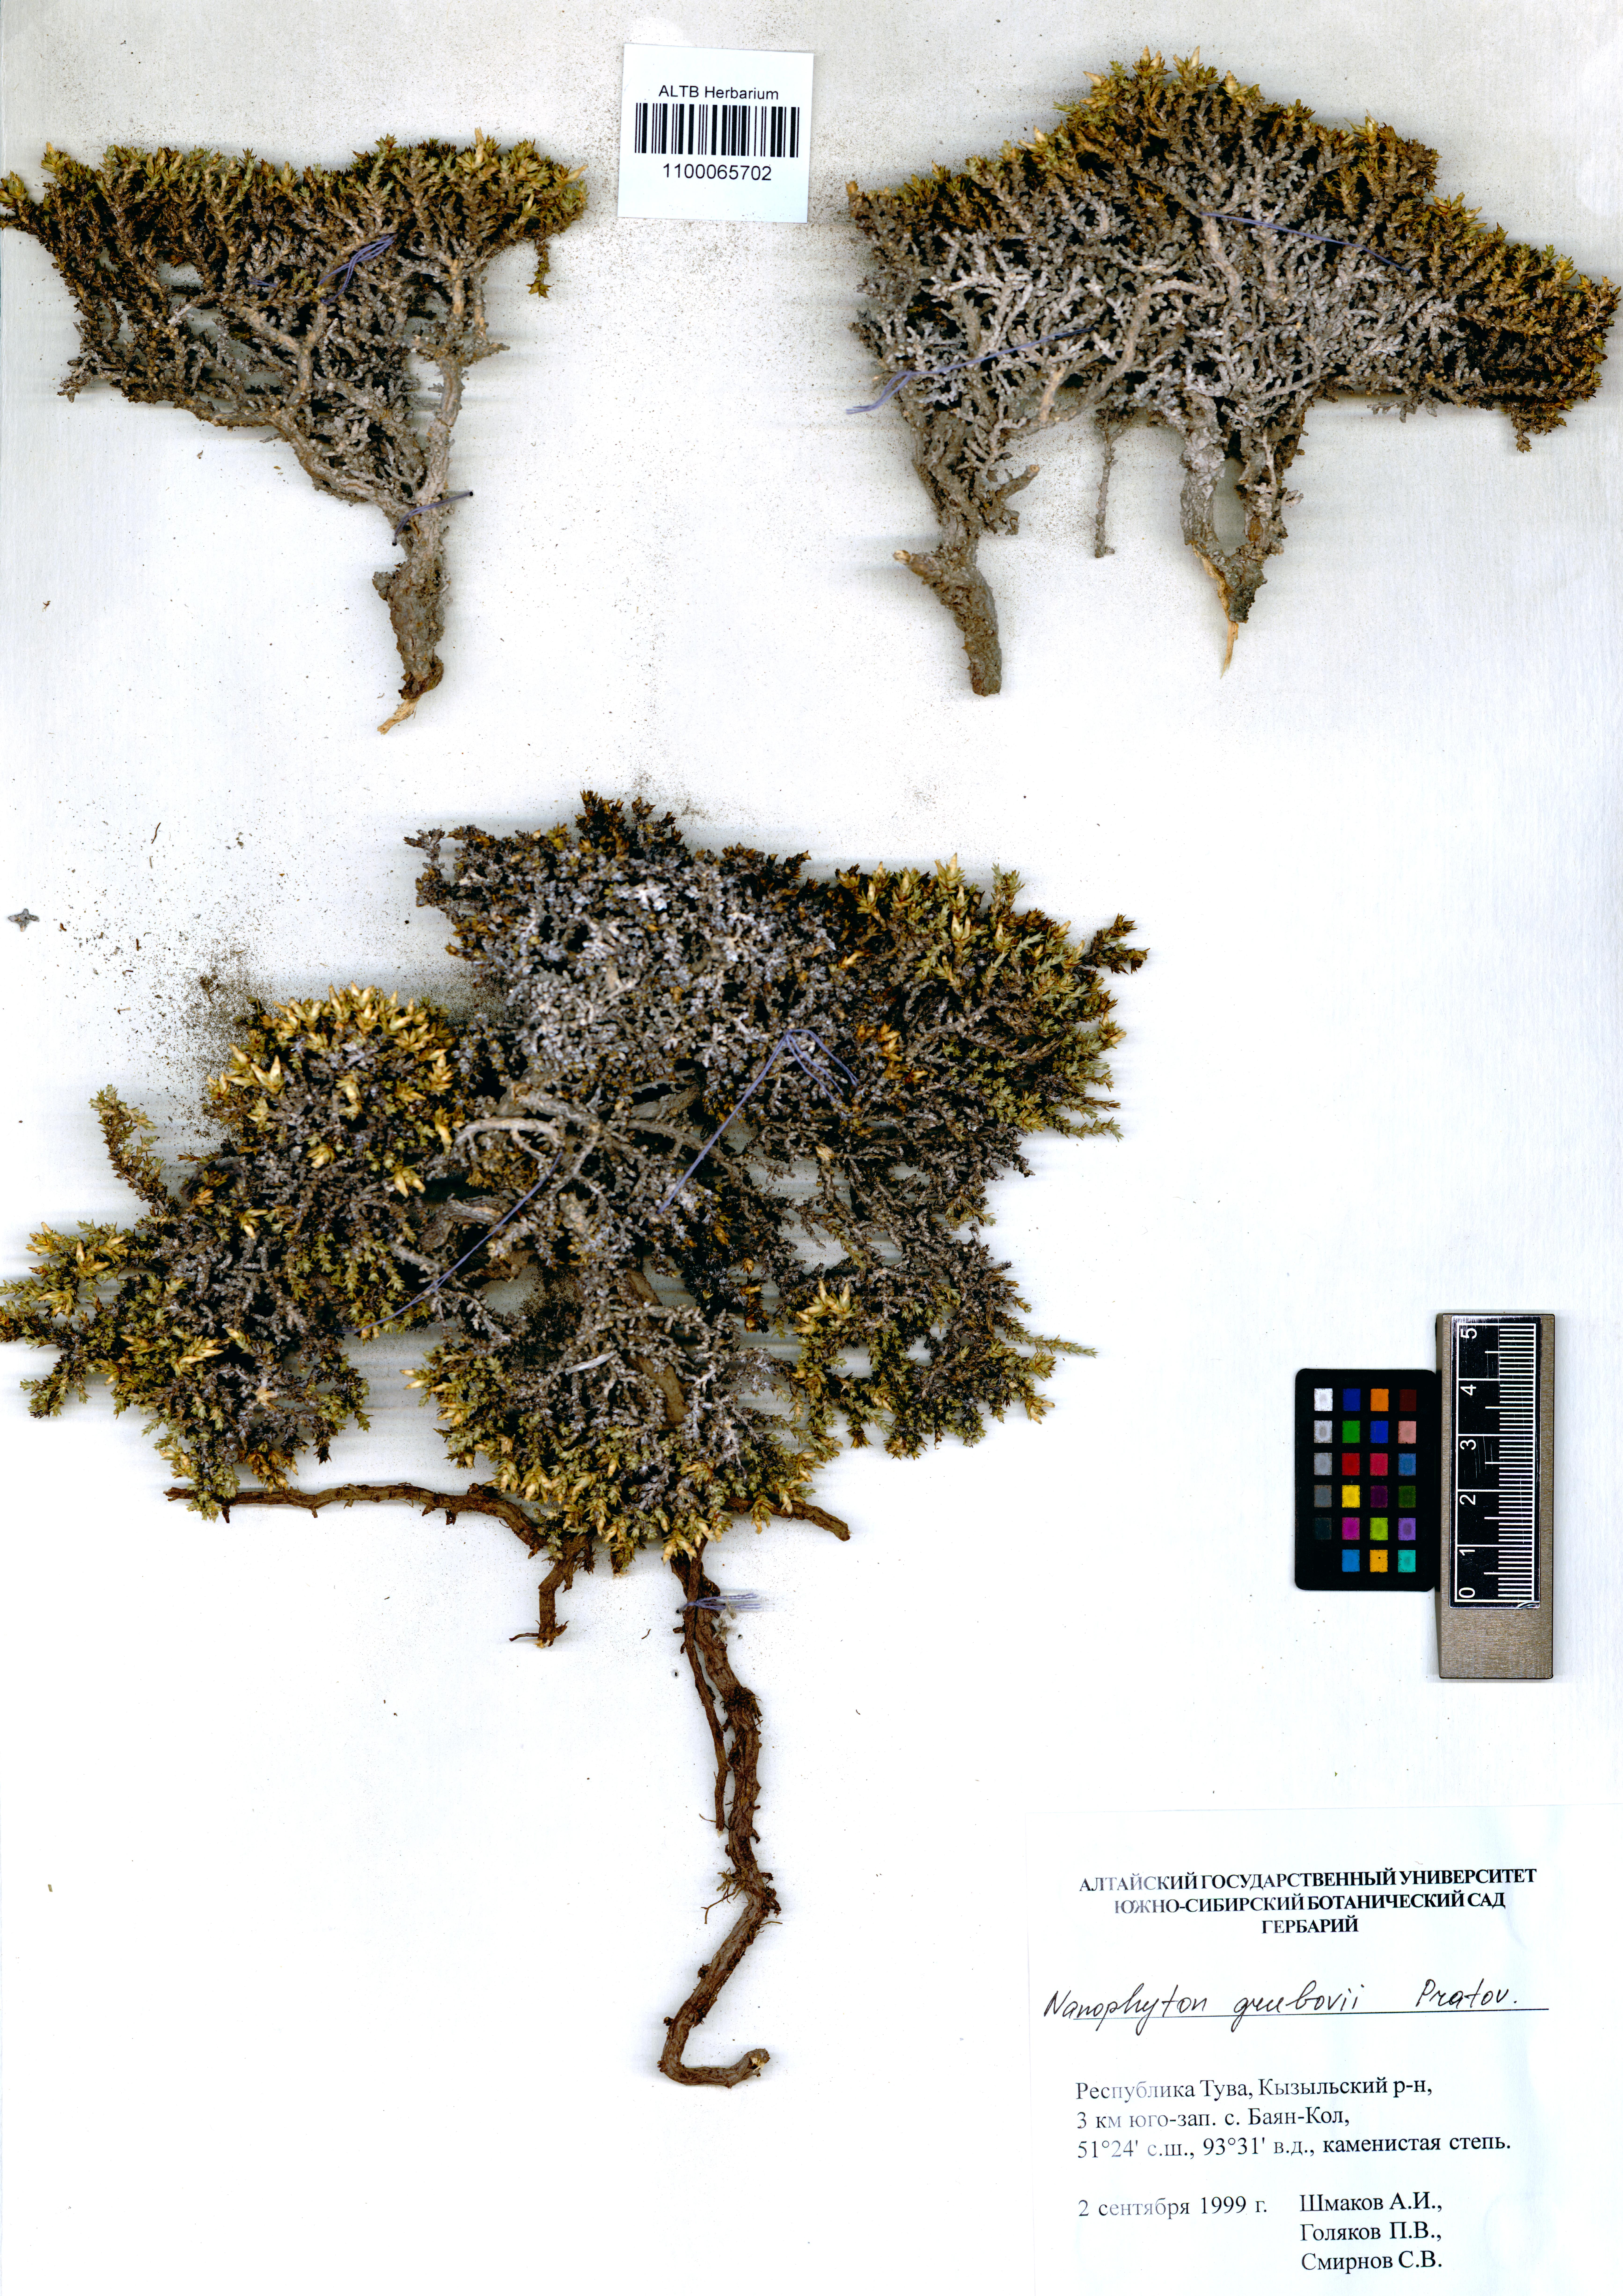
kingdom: Plantae
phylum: Tracheophyta
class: Magnoliopsida
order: Caryophyllales
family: Amaranthaceae
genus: Nanophyton
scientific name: Nanophyton grubovii
